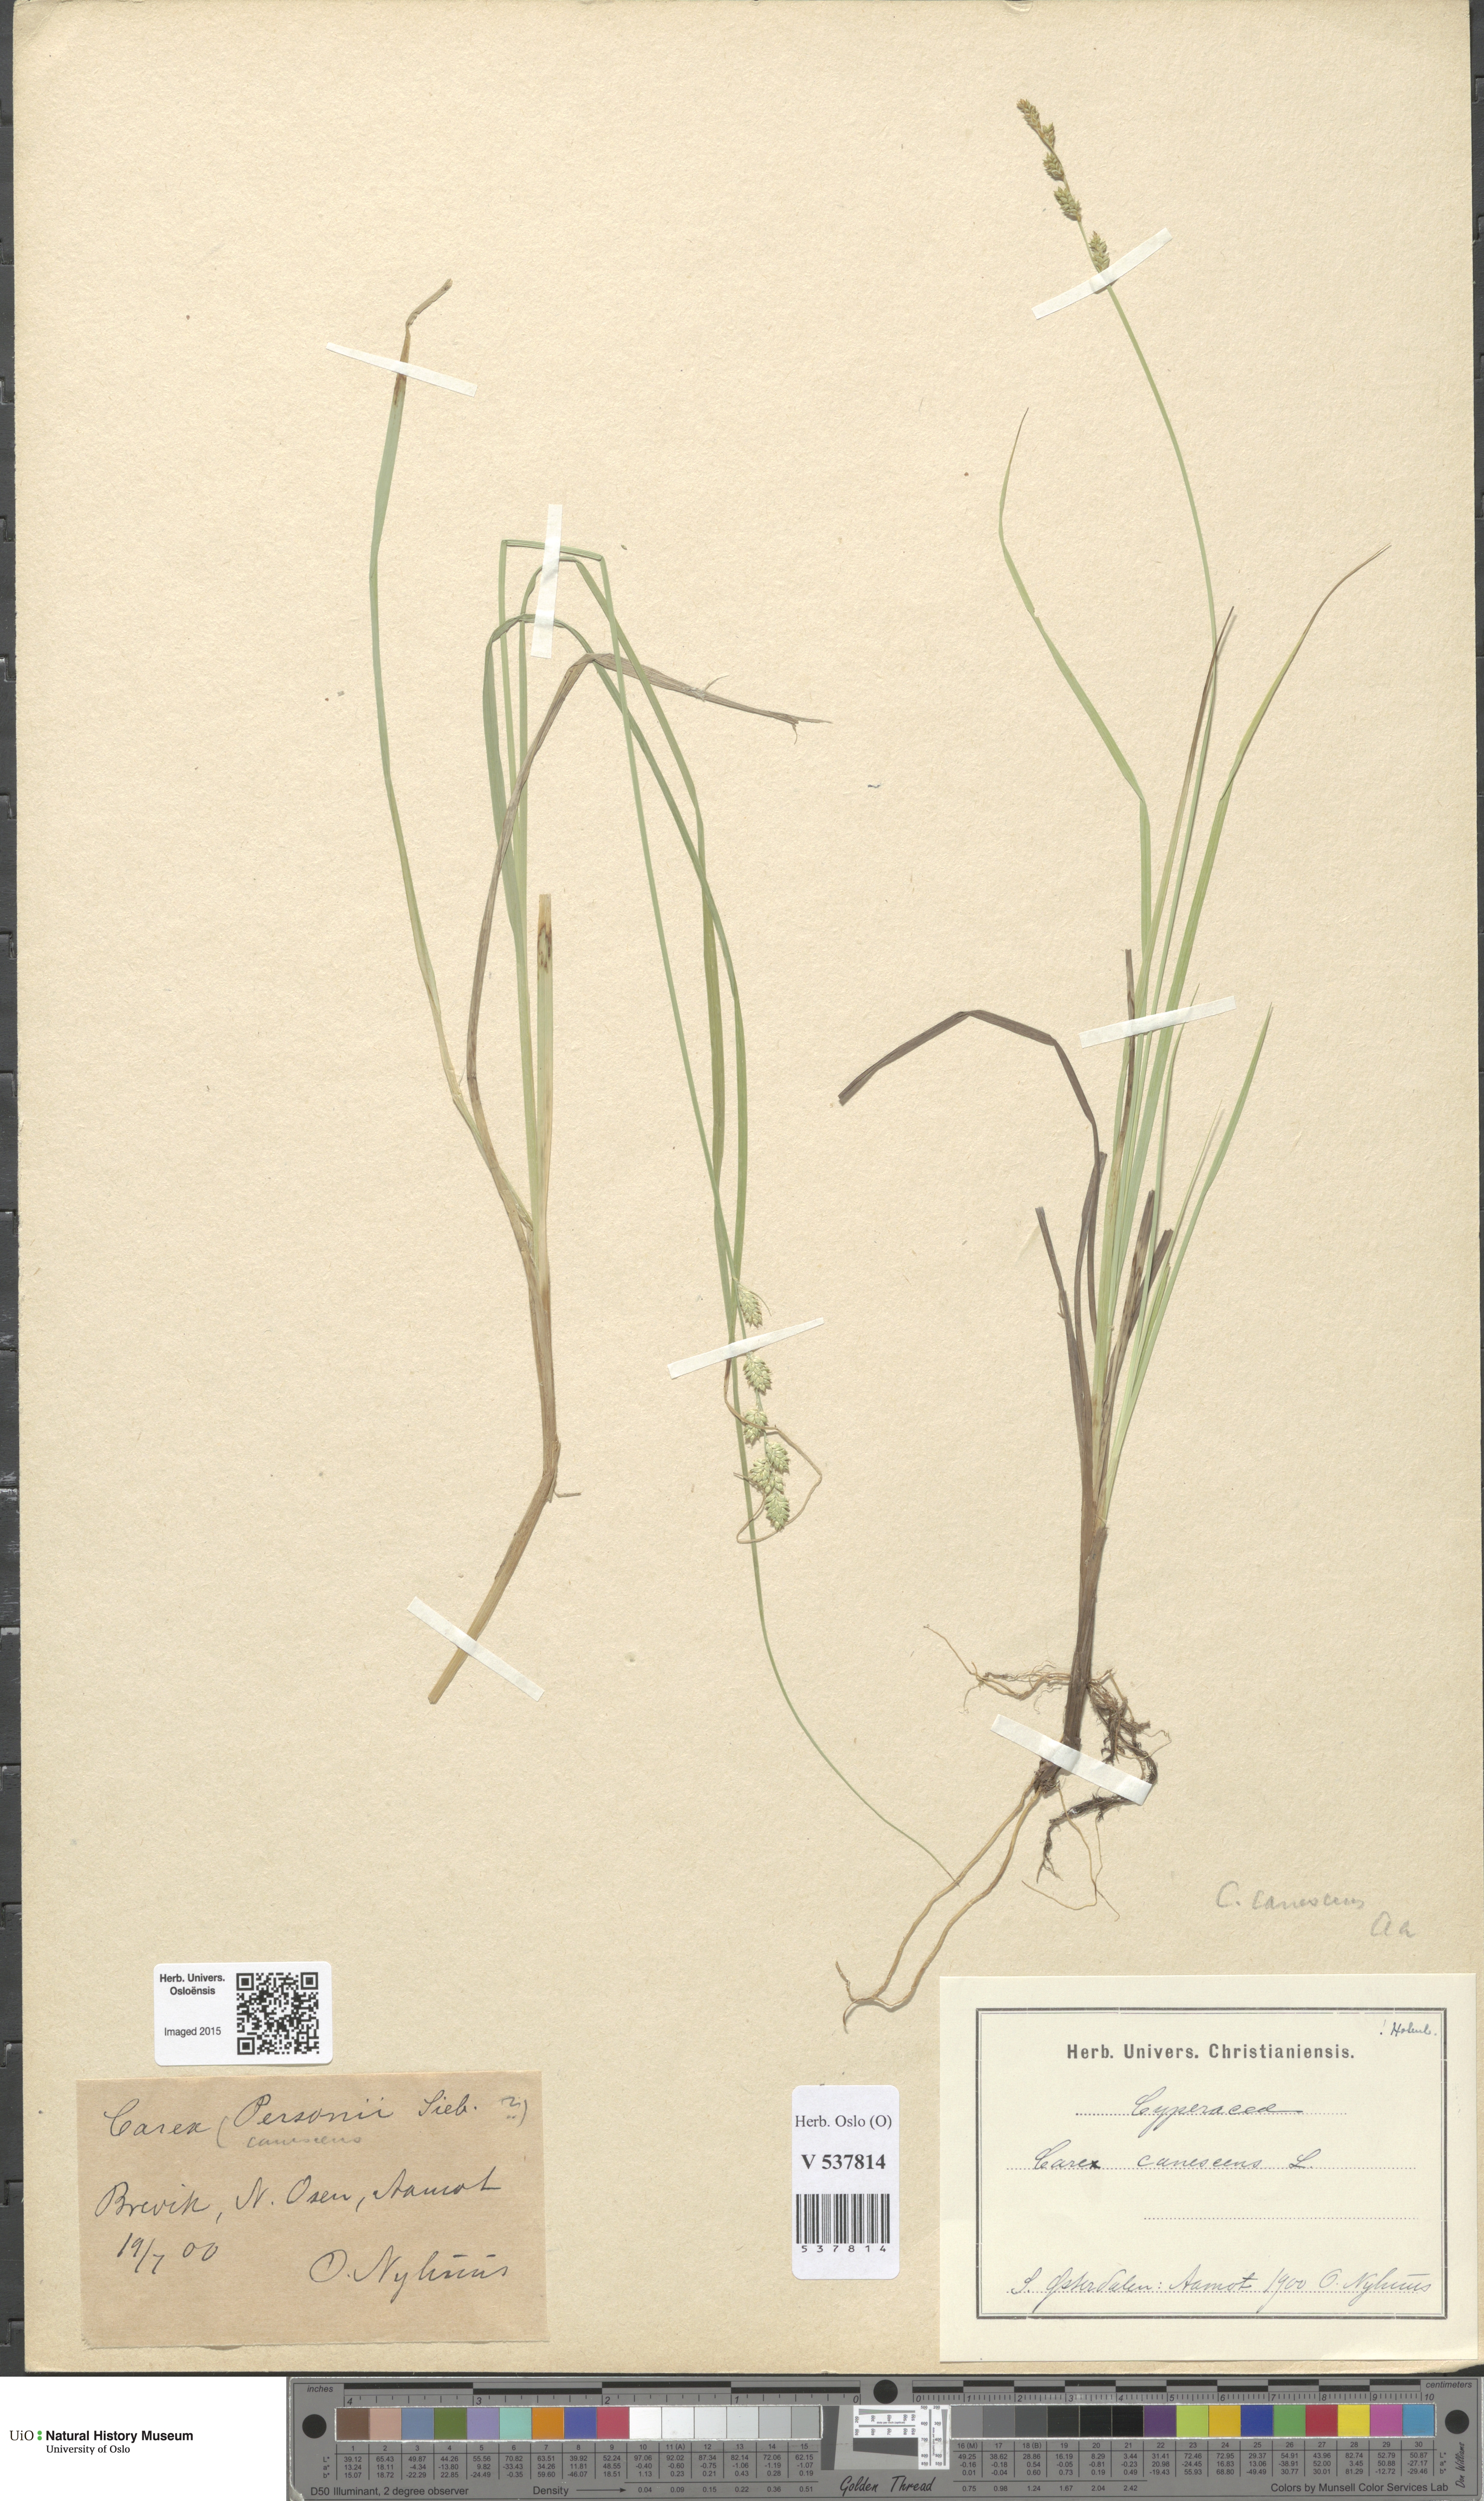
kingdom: Plantae
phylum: Tracheophyta
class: Liliopsida
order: Poales
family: Cyperaceae
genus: Carex
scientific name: Carex canescens
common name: White sedge
